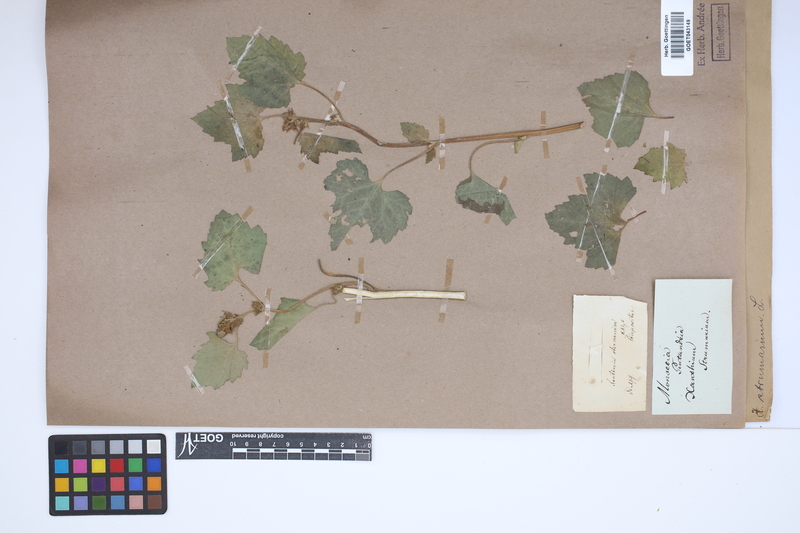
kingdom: Plantae
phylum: Tracheophyta
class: Magnoliopsida
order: Asterales
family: Asteraceae
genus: Xanthium
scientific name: Xanthium strumarium
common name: Rough cocklebur
